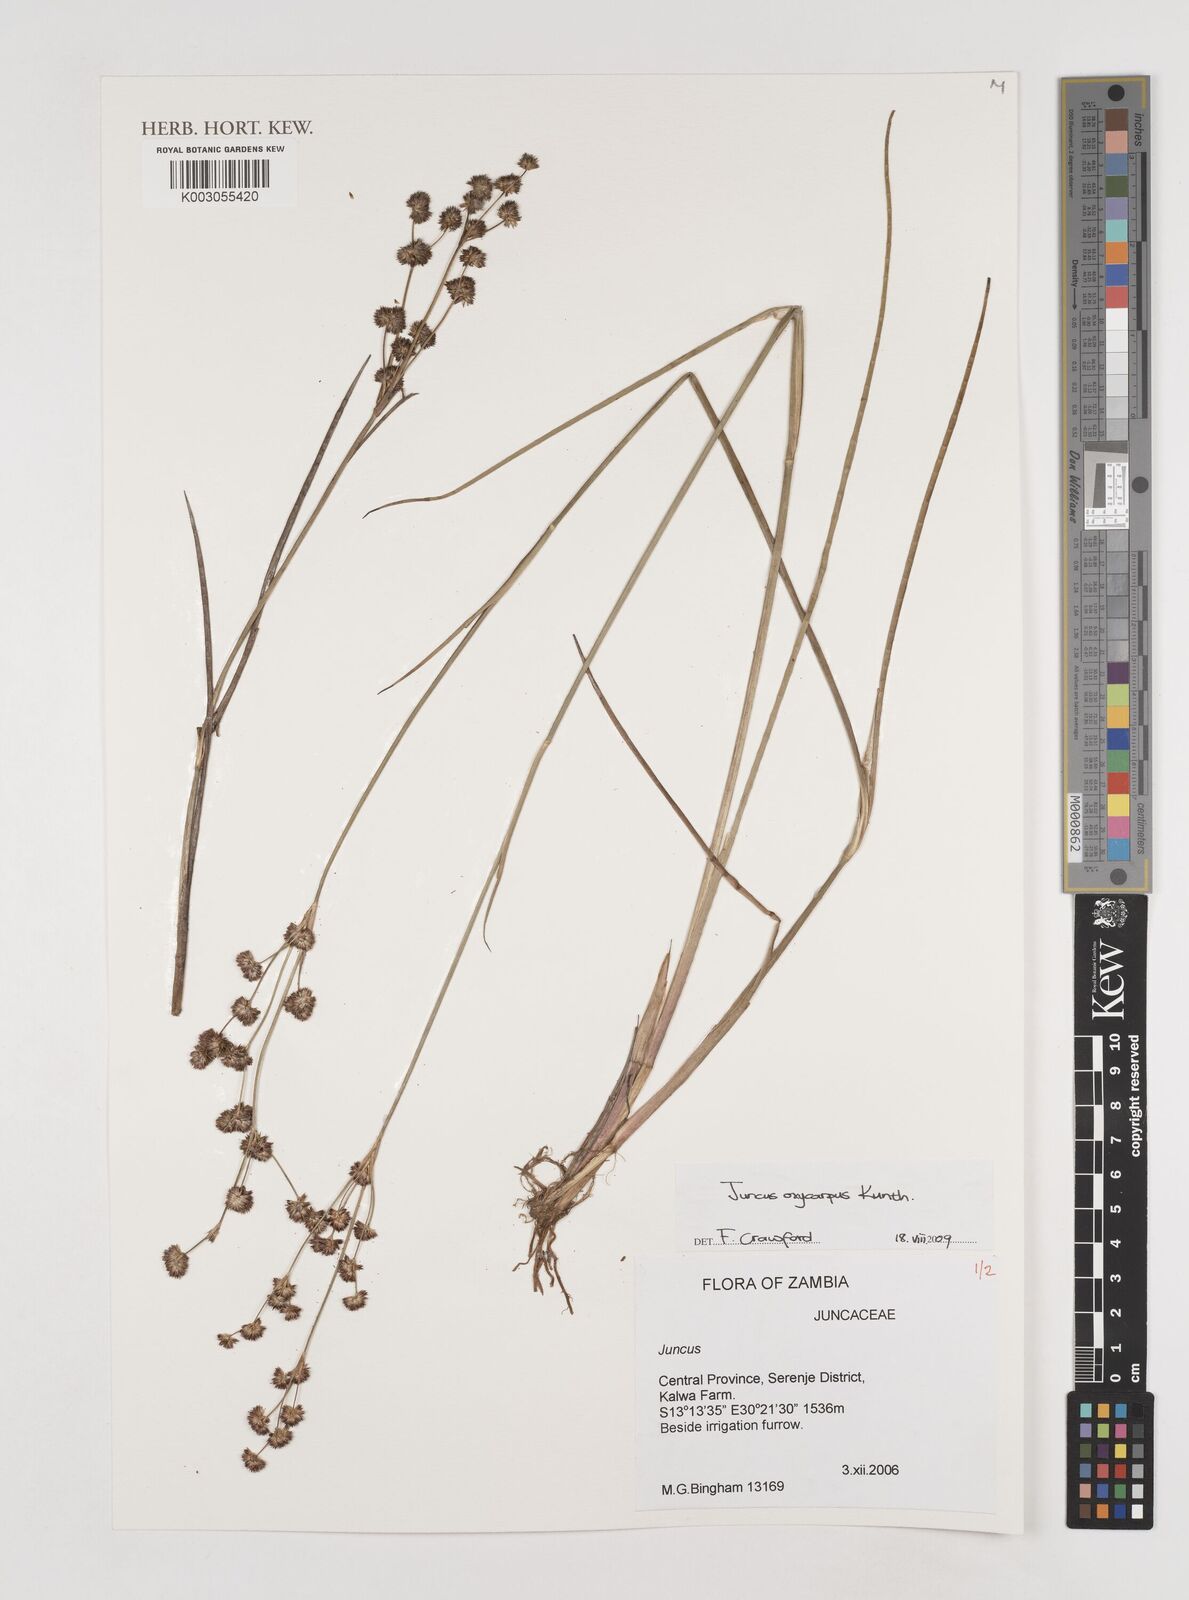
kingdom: Plantae
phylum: Tracheophyta
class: Liliopsida
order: Poales
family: Juncaceae
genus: Juncus
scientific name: Juncus oxycarpus
